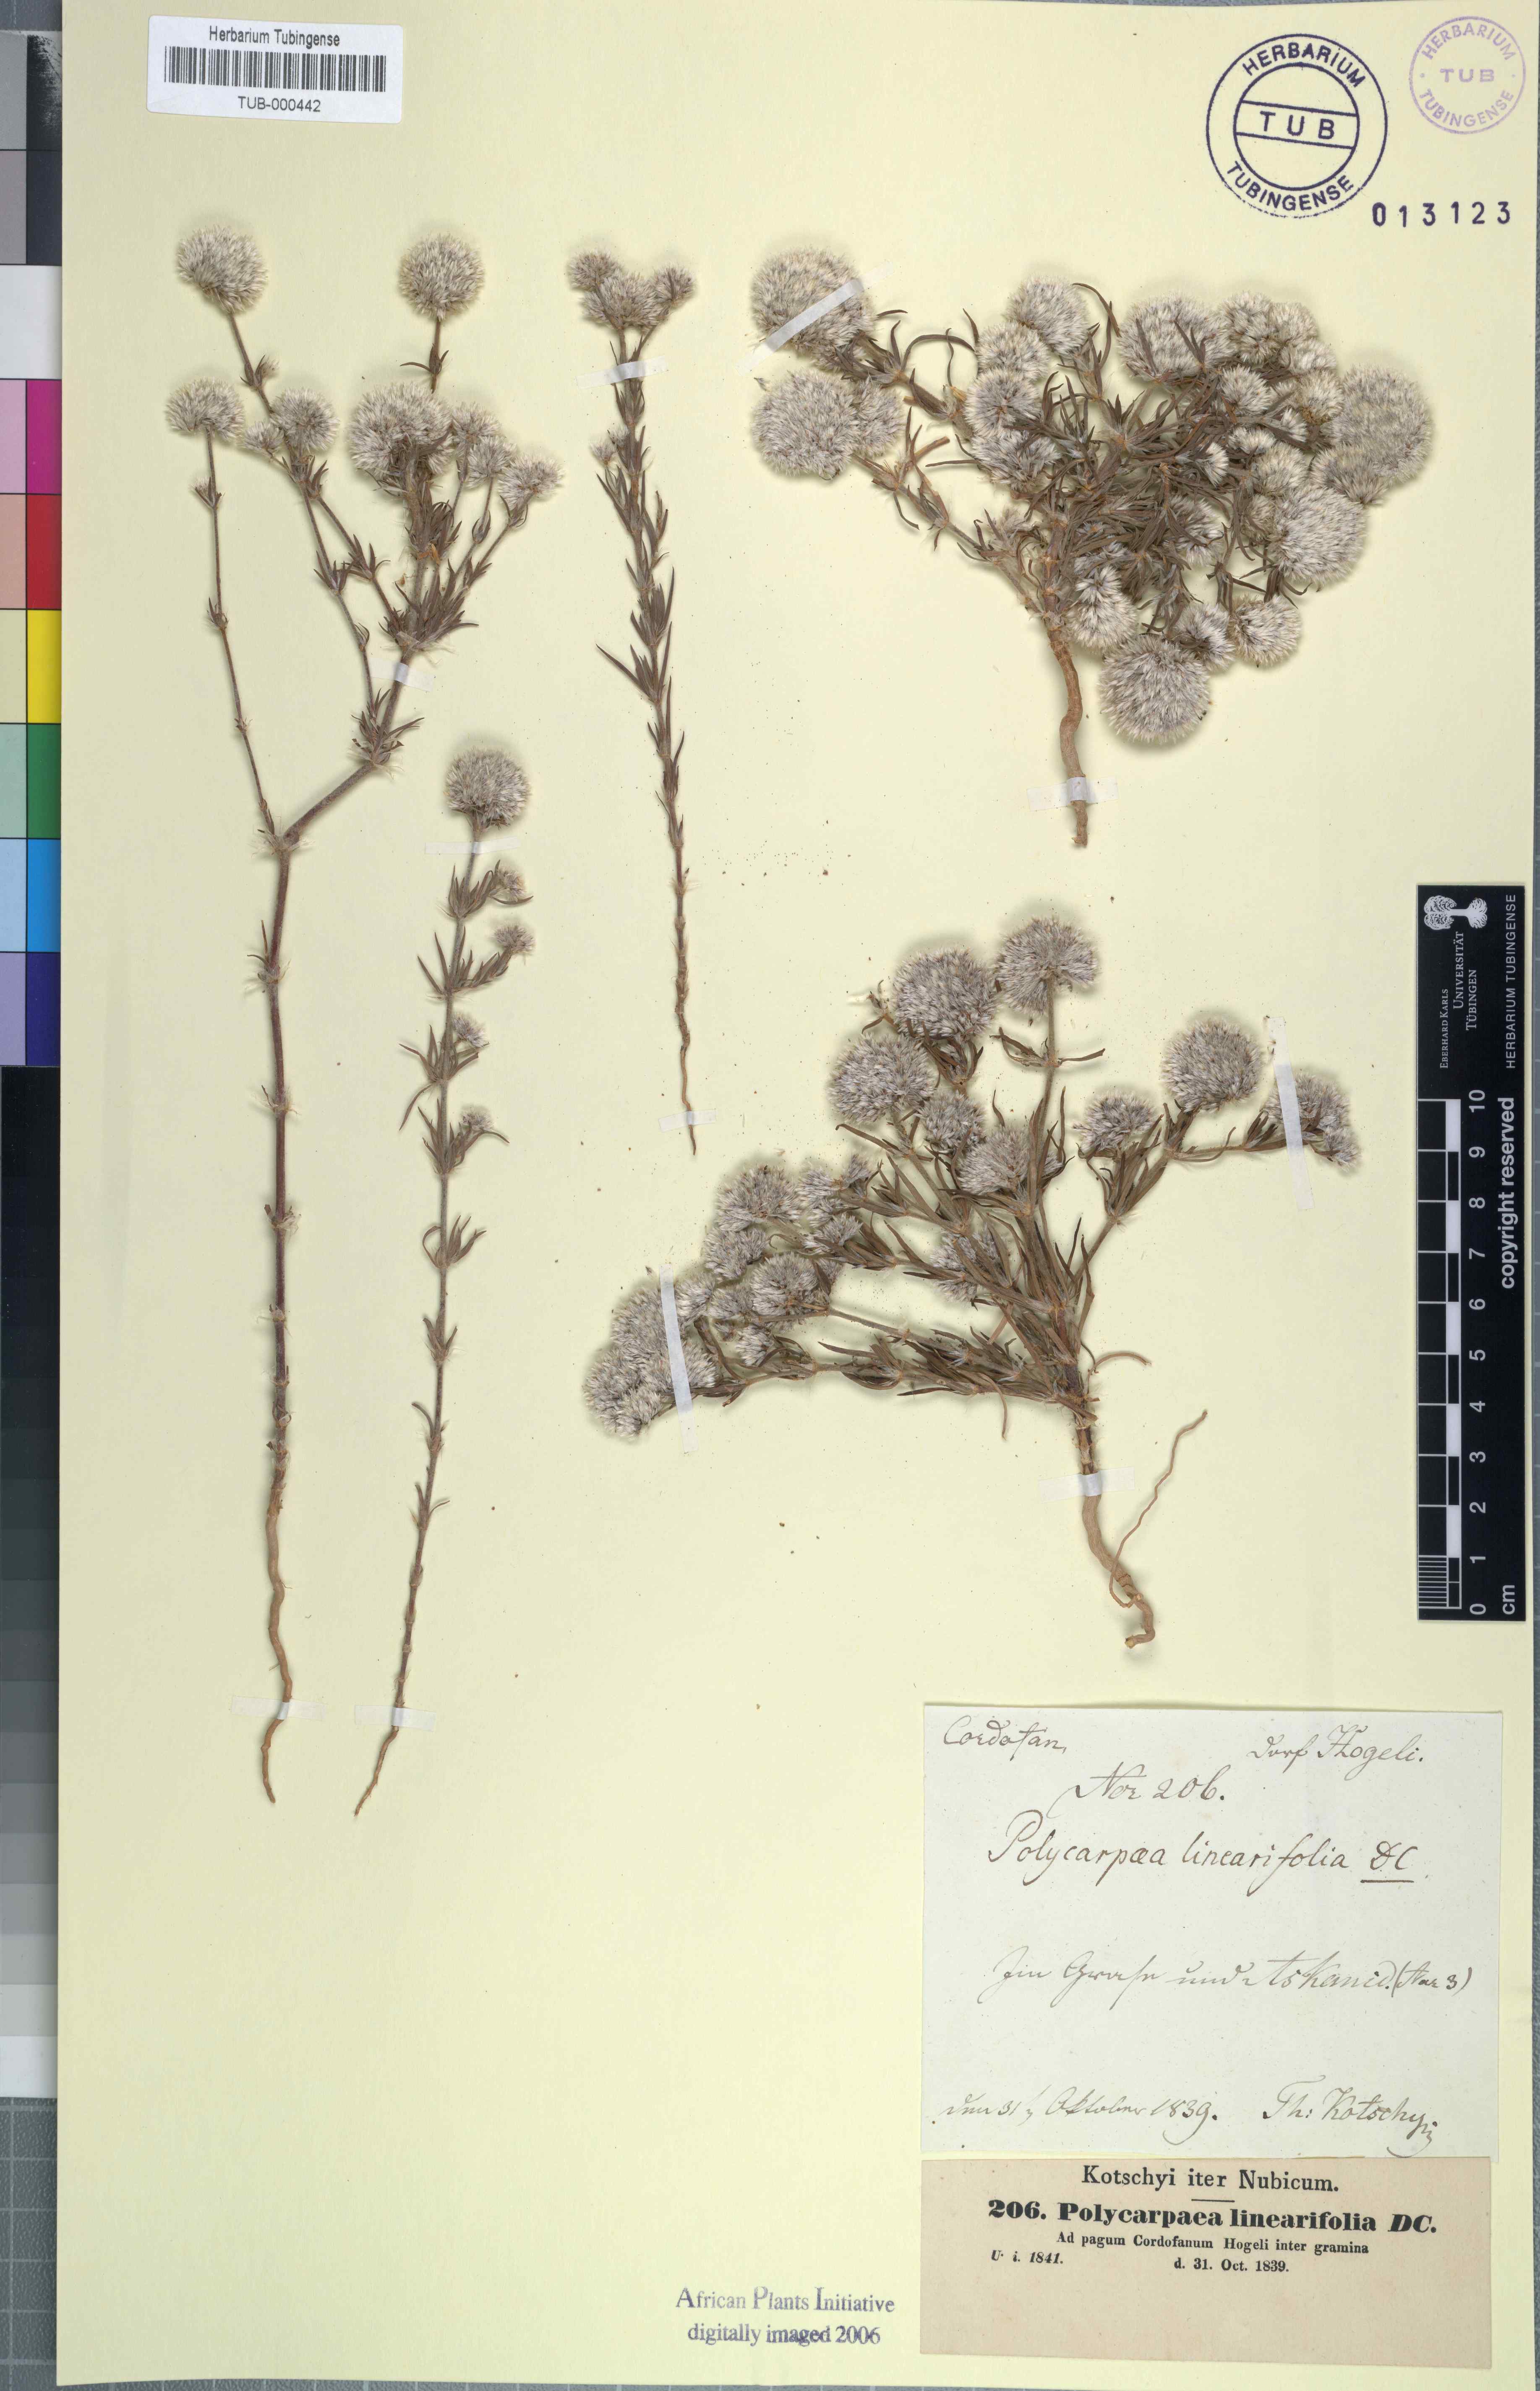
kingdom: Plantae
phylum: Tracheophyta
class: Magnoliopsida
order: Caryophyllales
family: Caryophyllaceae
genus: Polycarpaea
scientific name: Polycarpaea nivea
